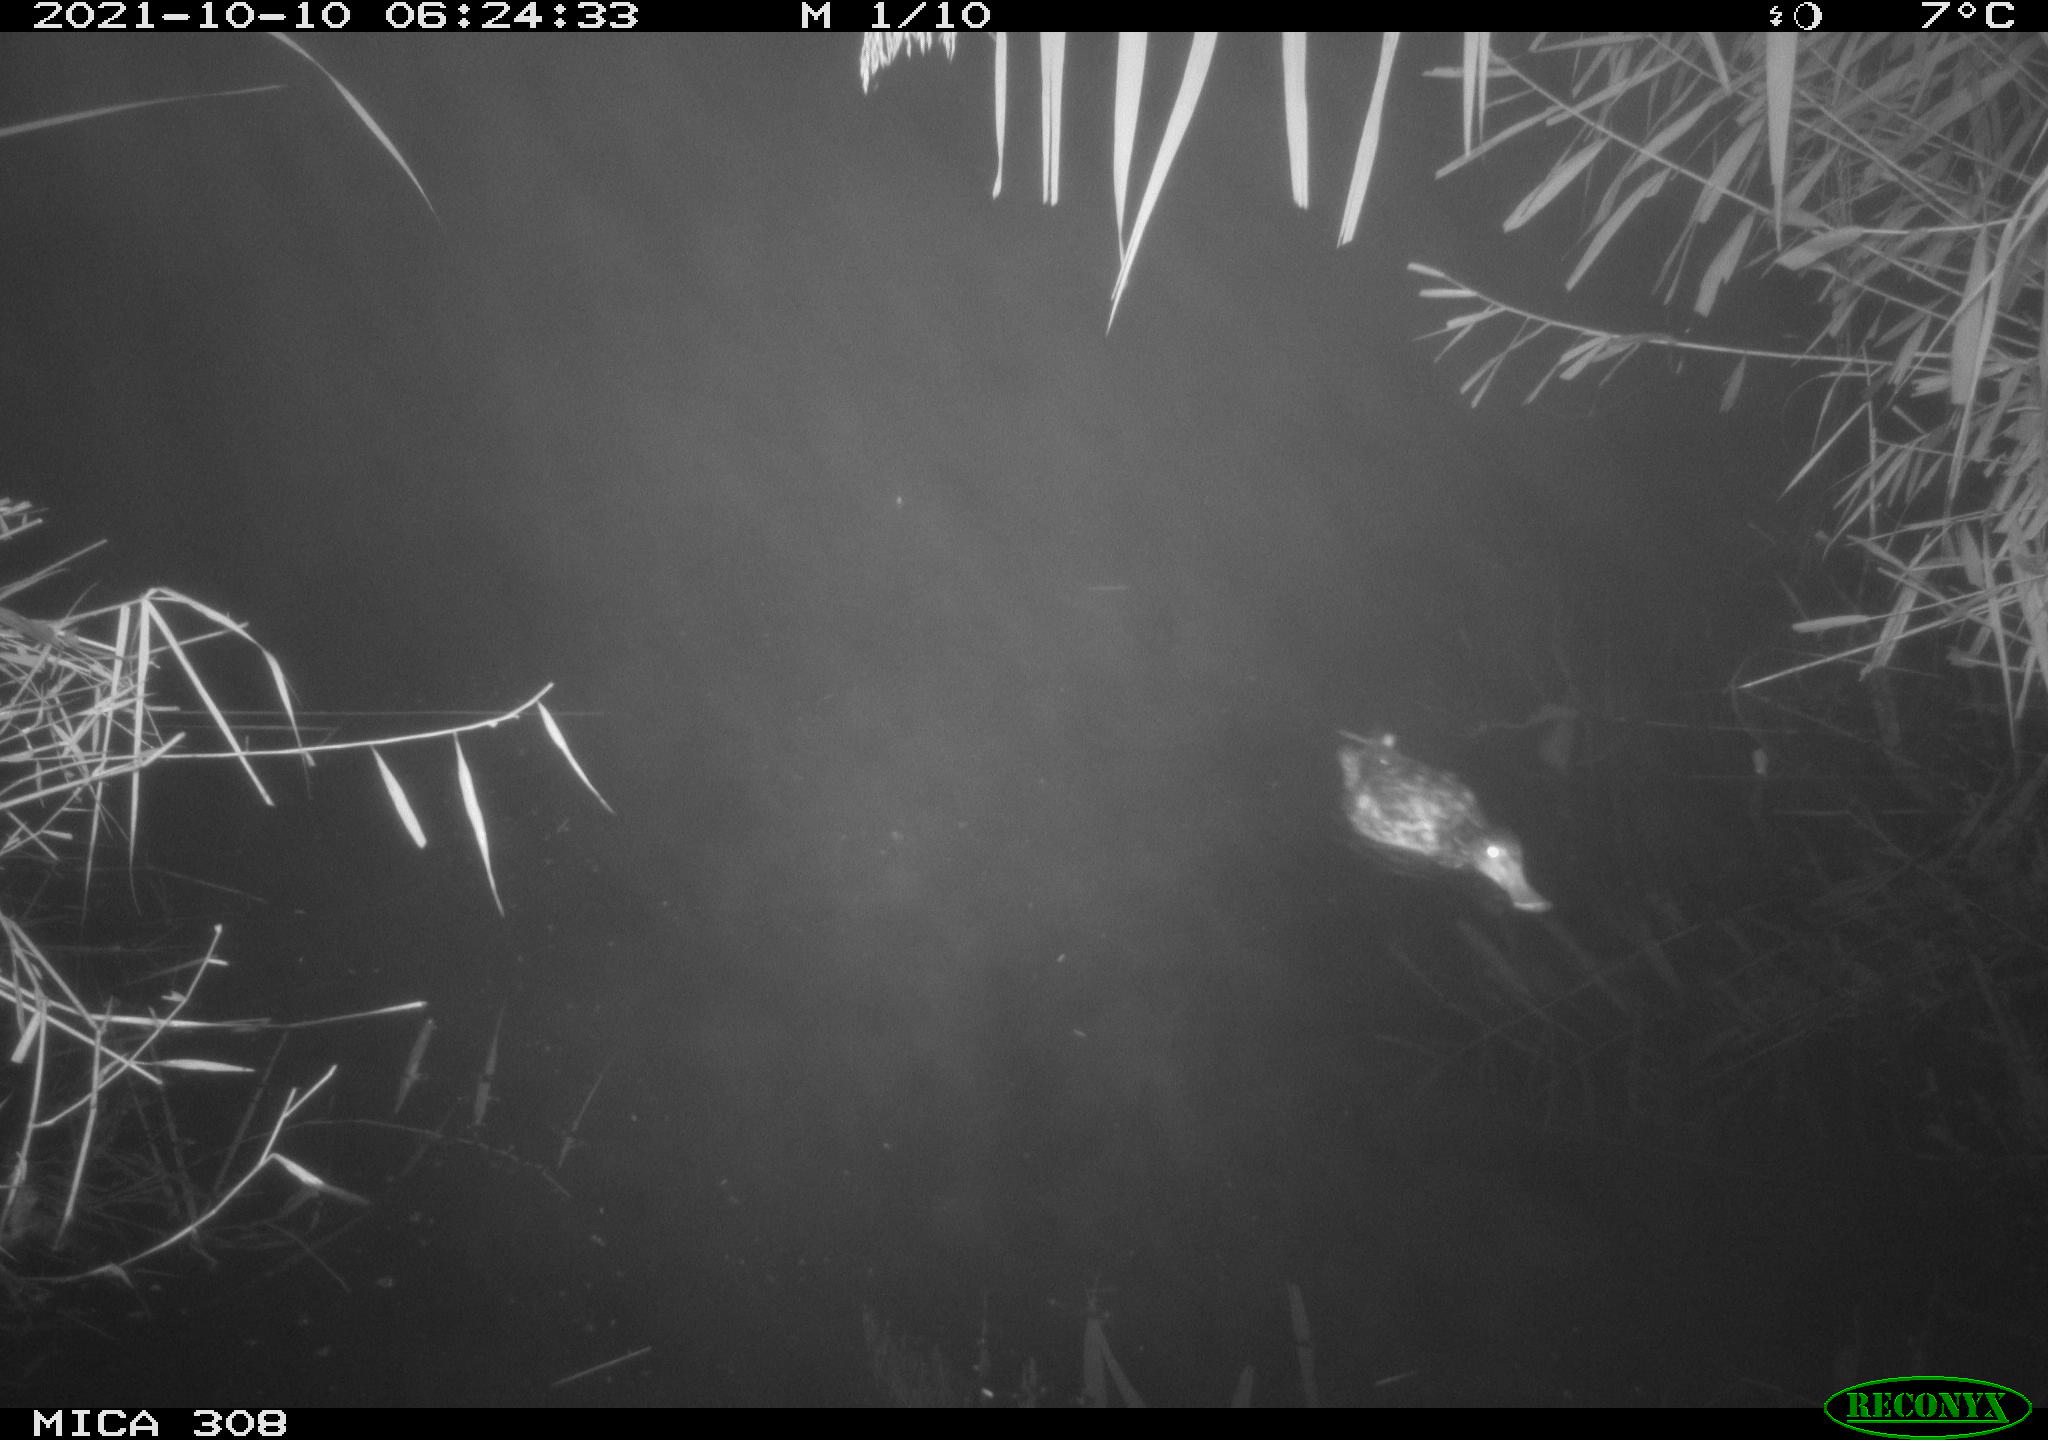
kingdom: Animalia
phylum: Chordata
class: Aves
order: Anseriformes
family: Anatidae
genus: Spatula
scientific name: Spatula clypeata
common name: Northern shoveler
